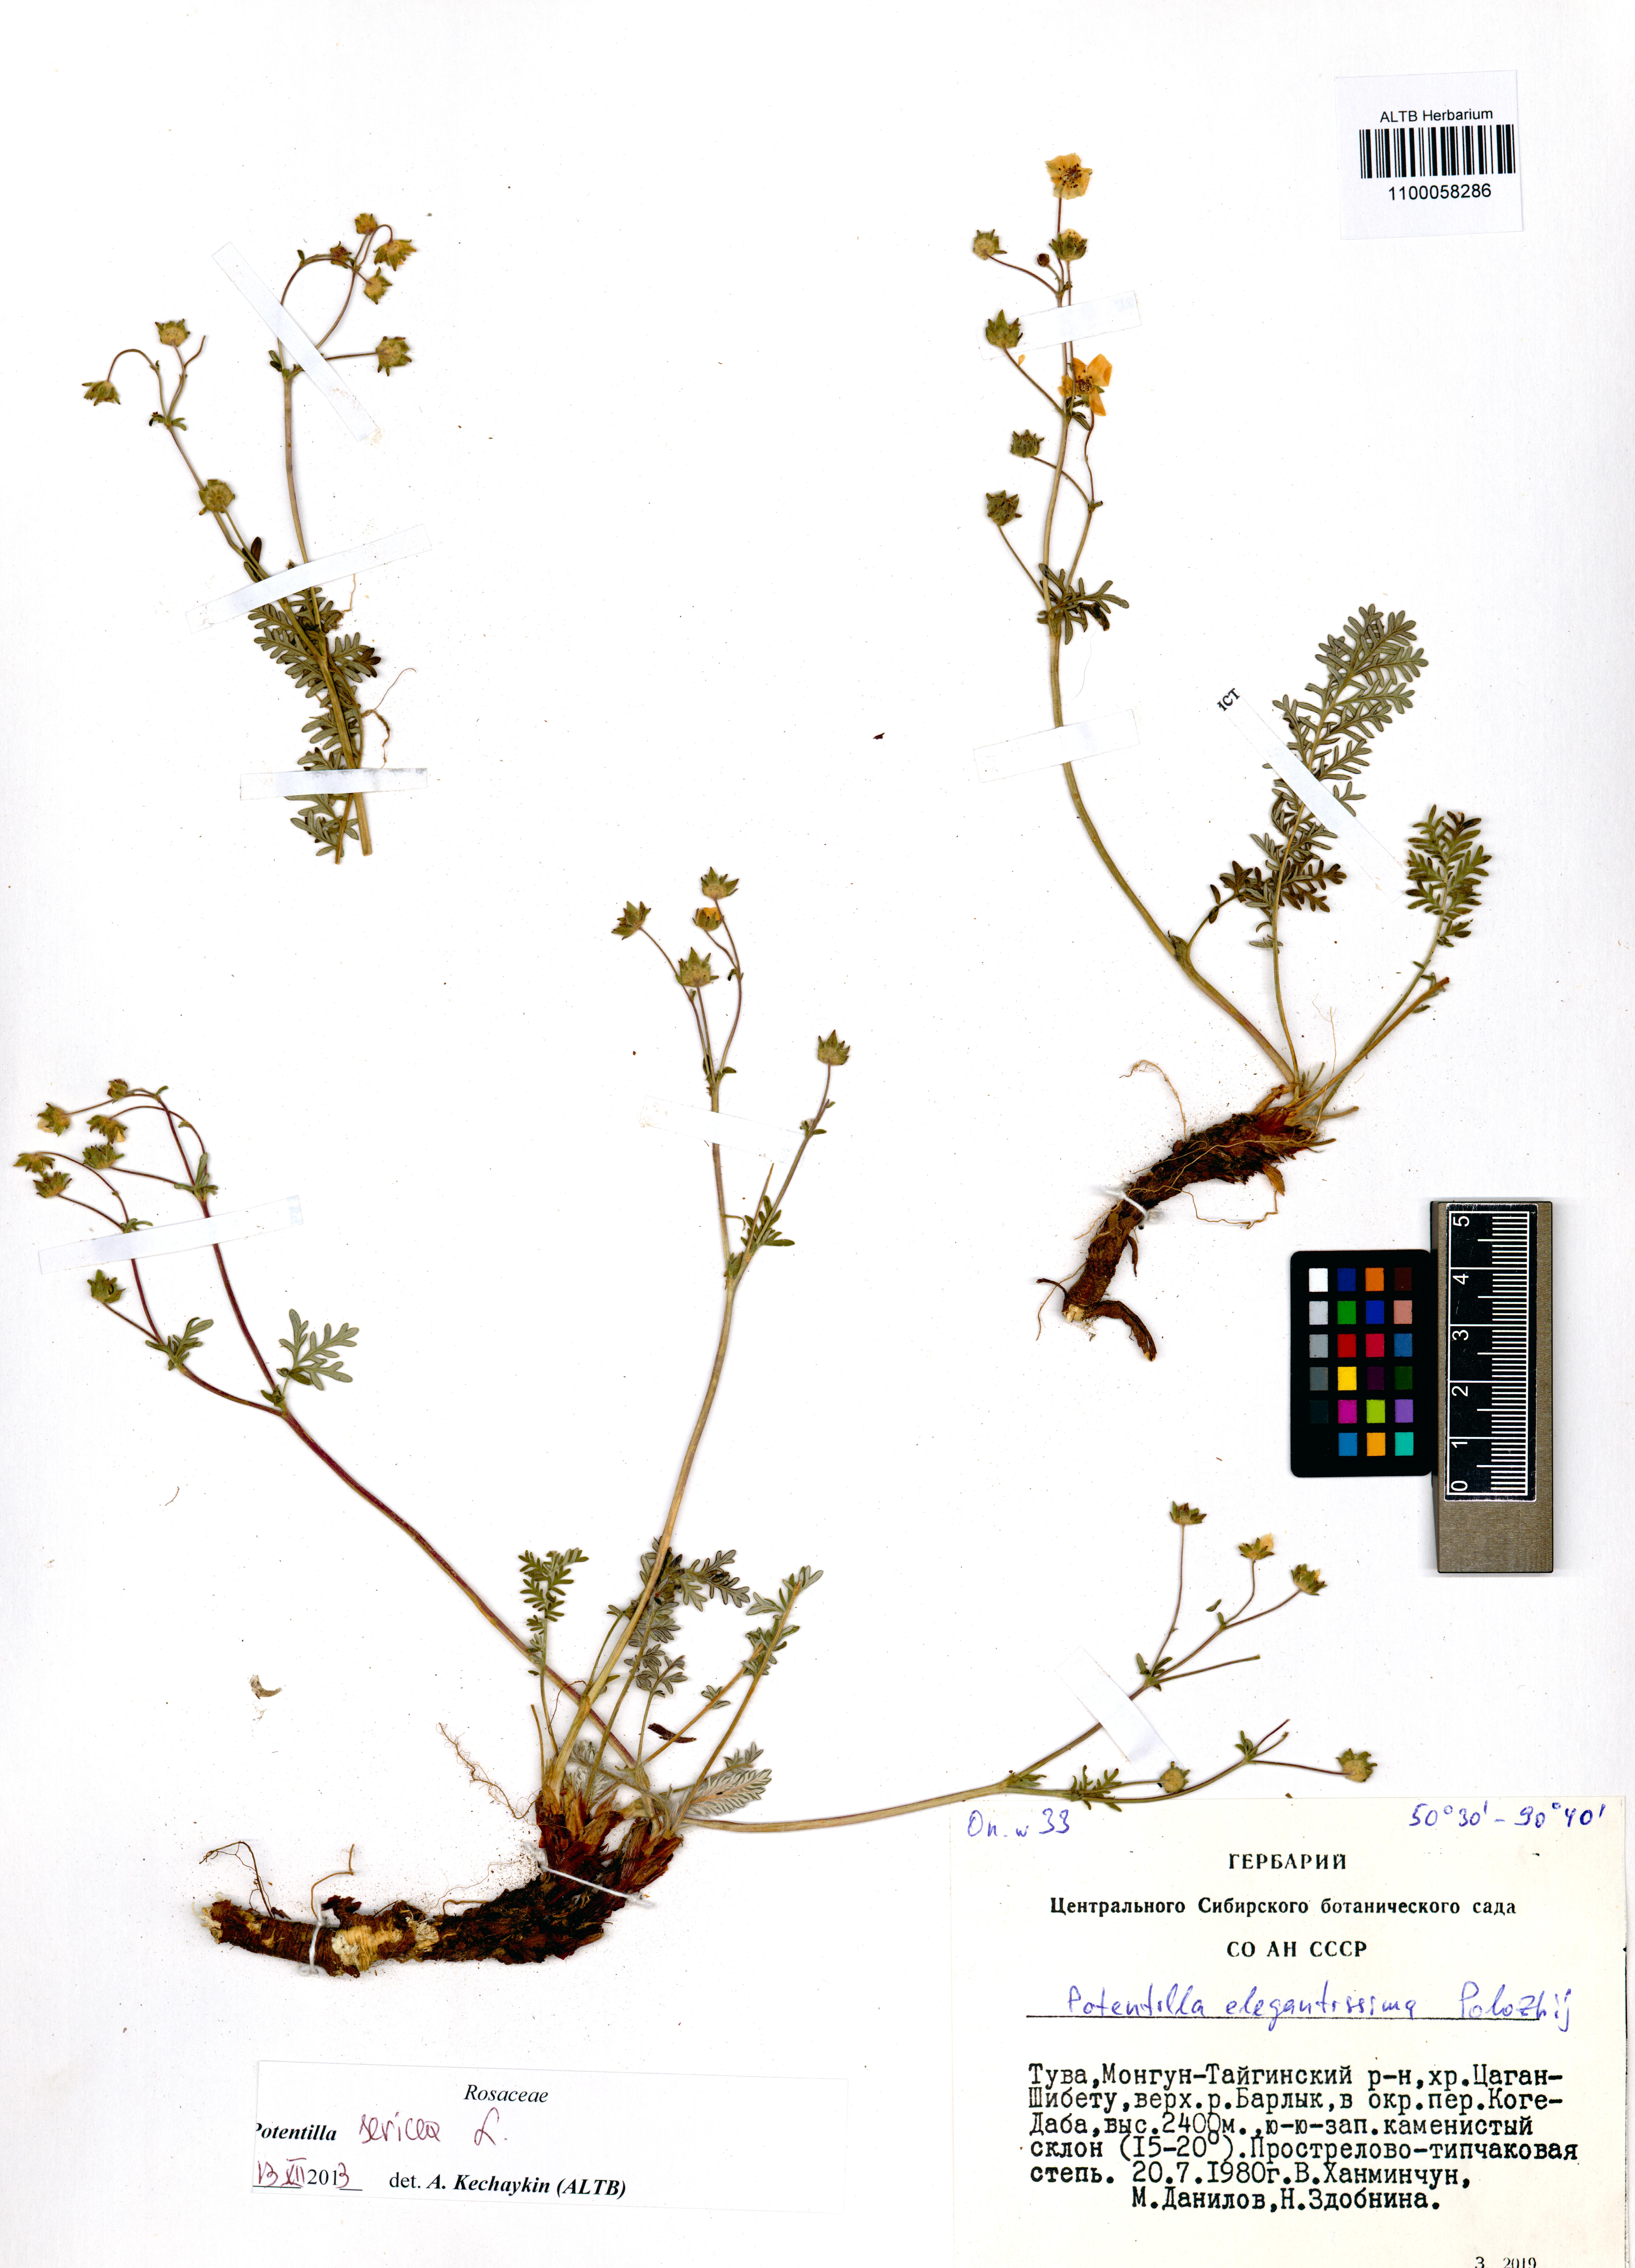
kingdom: Plantae
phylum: Tracheophyta
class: Magnoliopsida
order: Rosales
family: Rosaceae
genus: Potentilla
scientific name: Potentilla sericea
